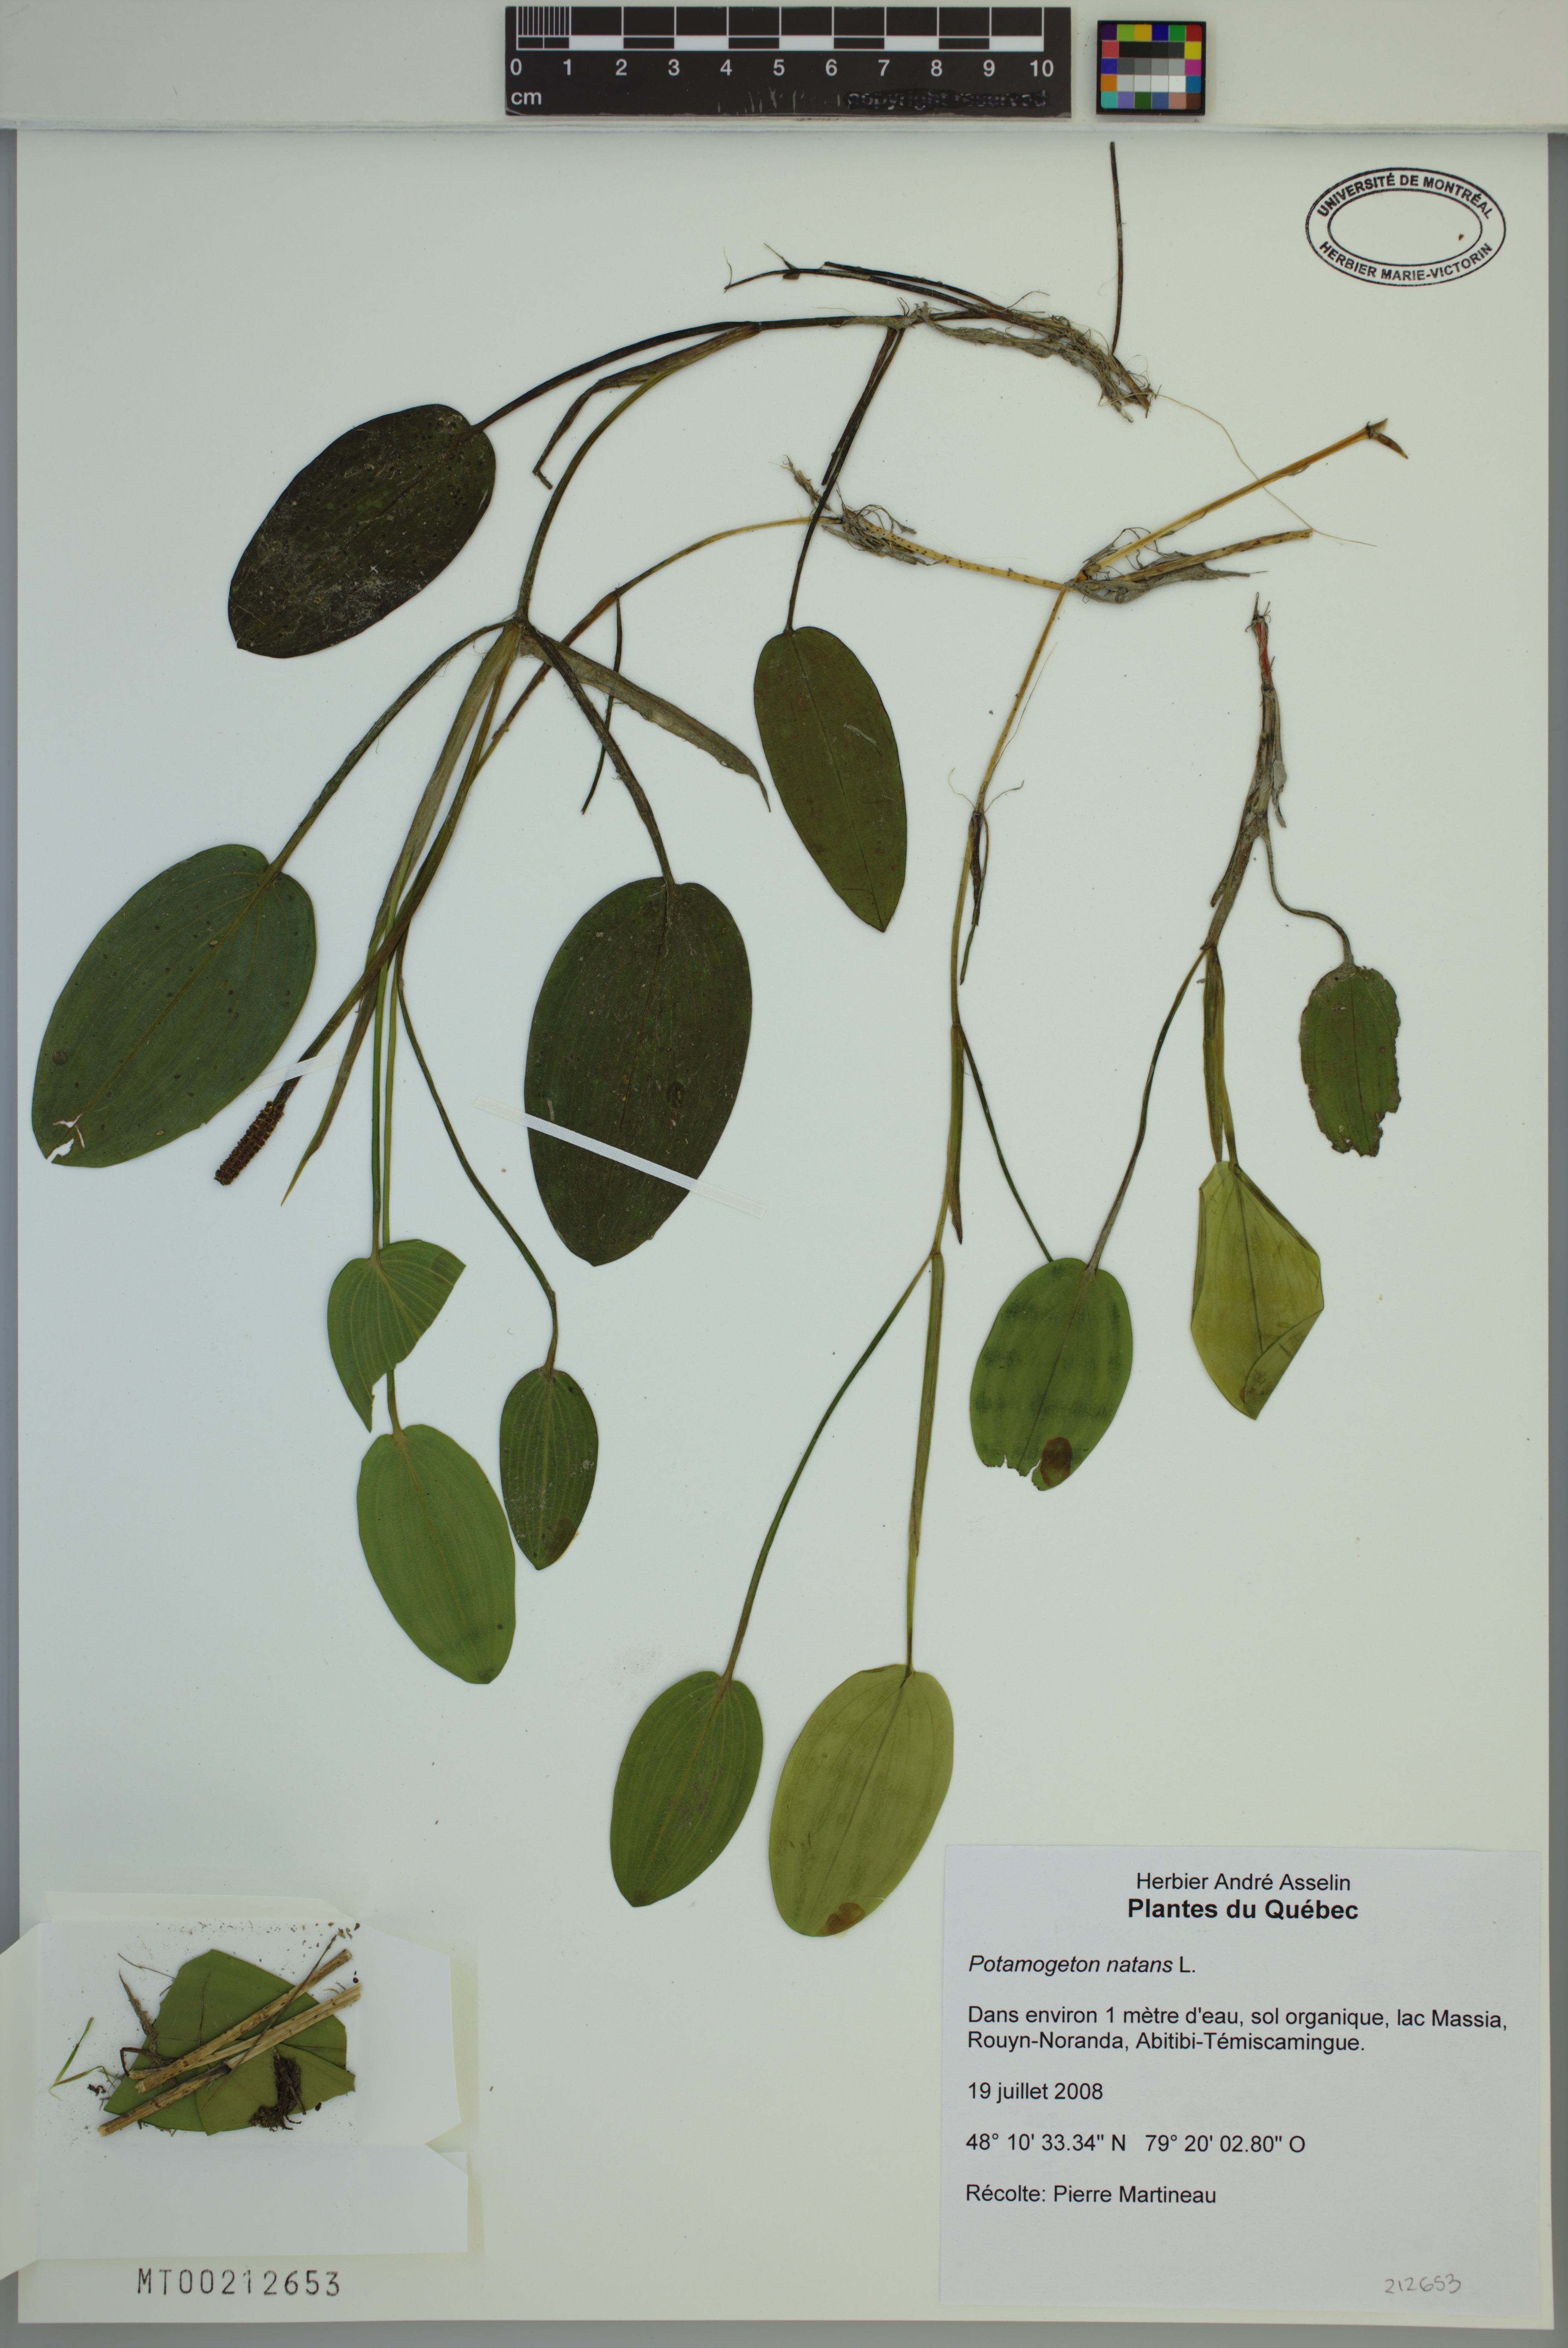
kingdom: Plantae
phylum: Tracheophyta
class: Liliopsida
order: Alismatales
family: Potamogetonaceae
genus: Potamogeton
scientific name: Potamogeton natans
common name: Broad-leaved pondweed
